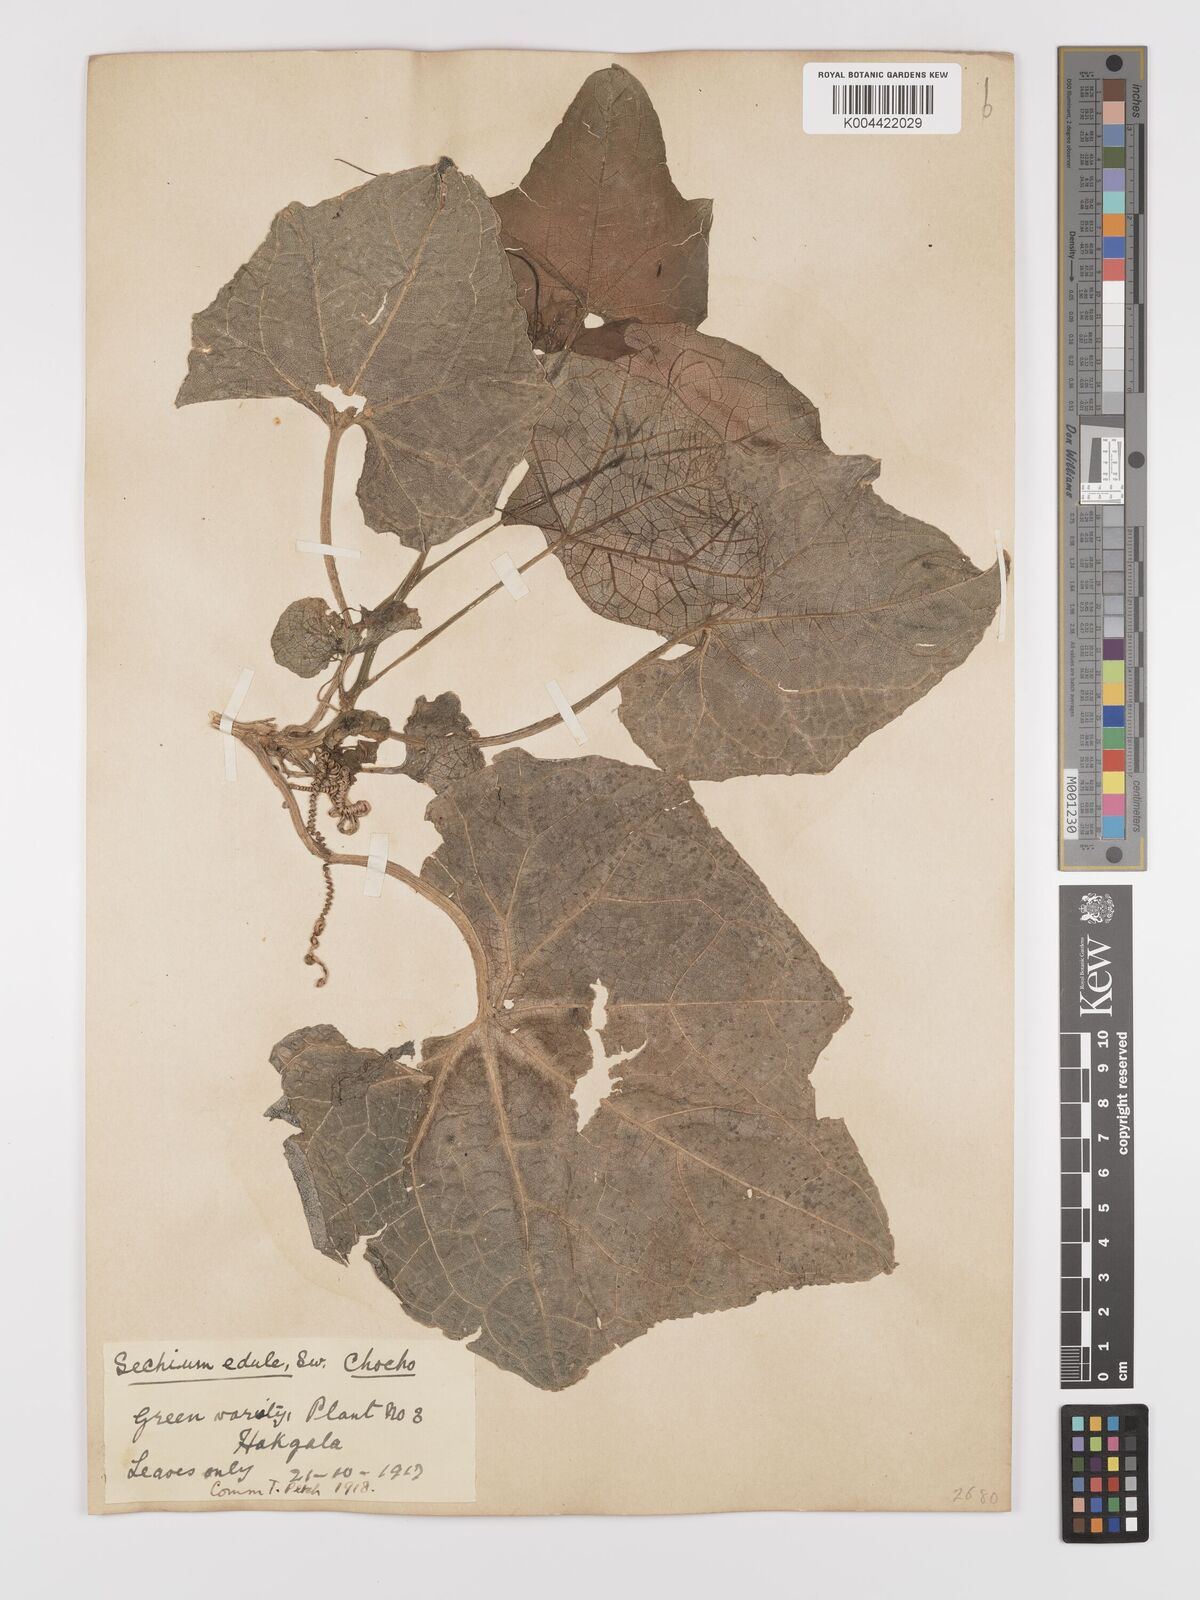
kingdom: Plantae
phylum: Tracheophyta
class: Magnoliopsida
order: Cucurbitales
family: Cucurbitaceae
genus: Sechium
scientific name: Sechium edule
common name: Chayote
